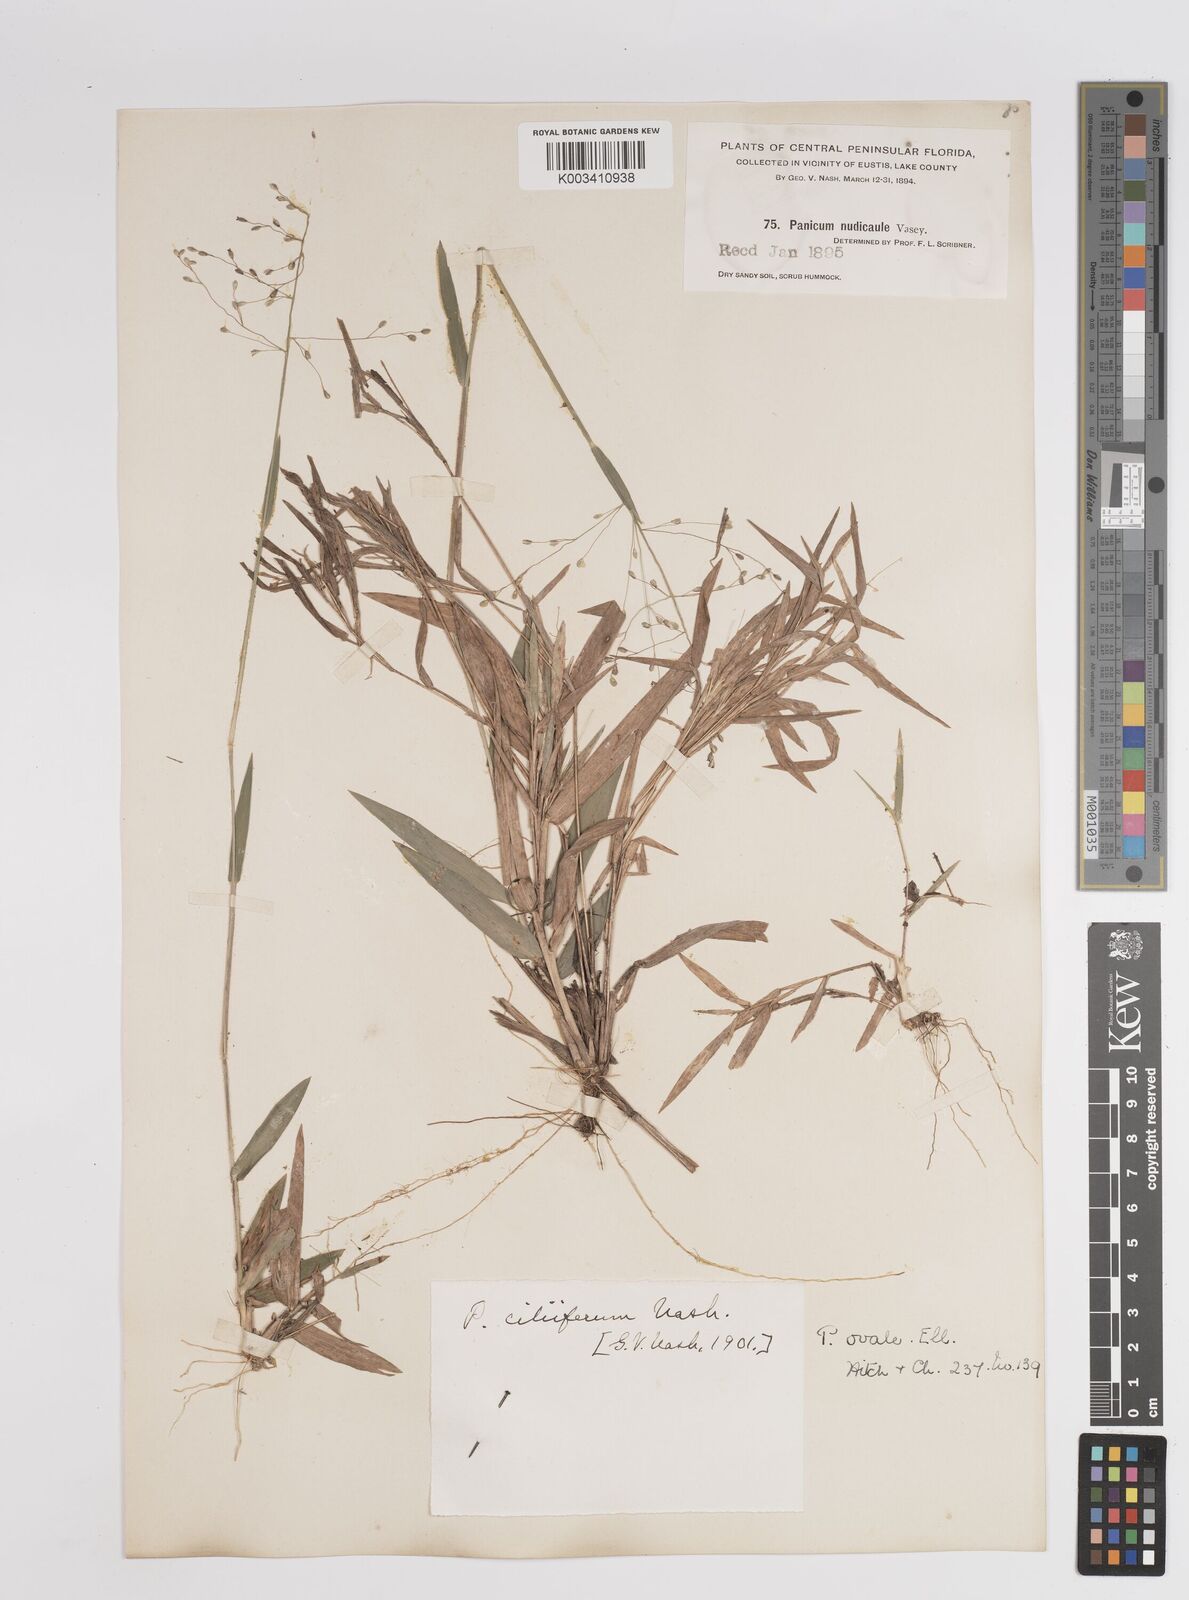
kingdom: Plantae
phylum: Tracheophyta
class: Liliopsida
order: Poales
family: Poaceae
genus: Dichanthelium
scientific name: Dichanthelium ovale
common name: Stiff-leaved panicgrass
